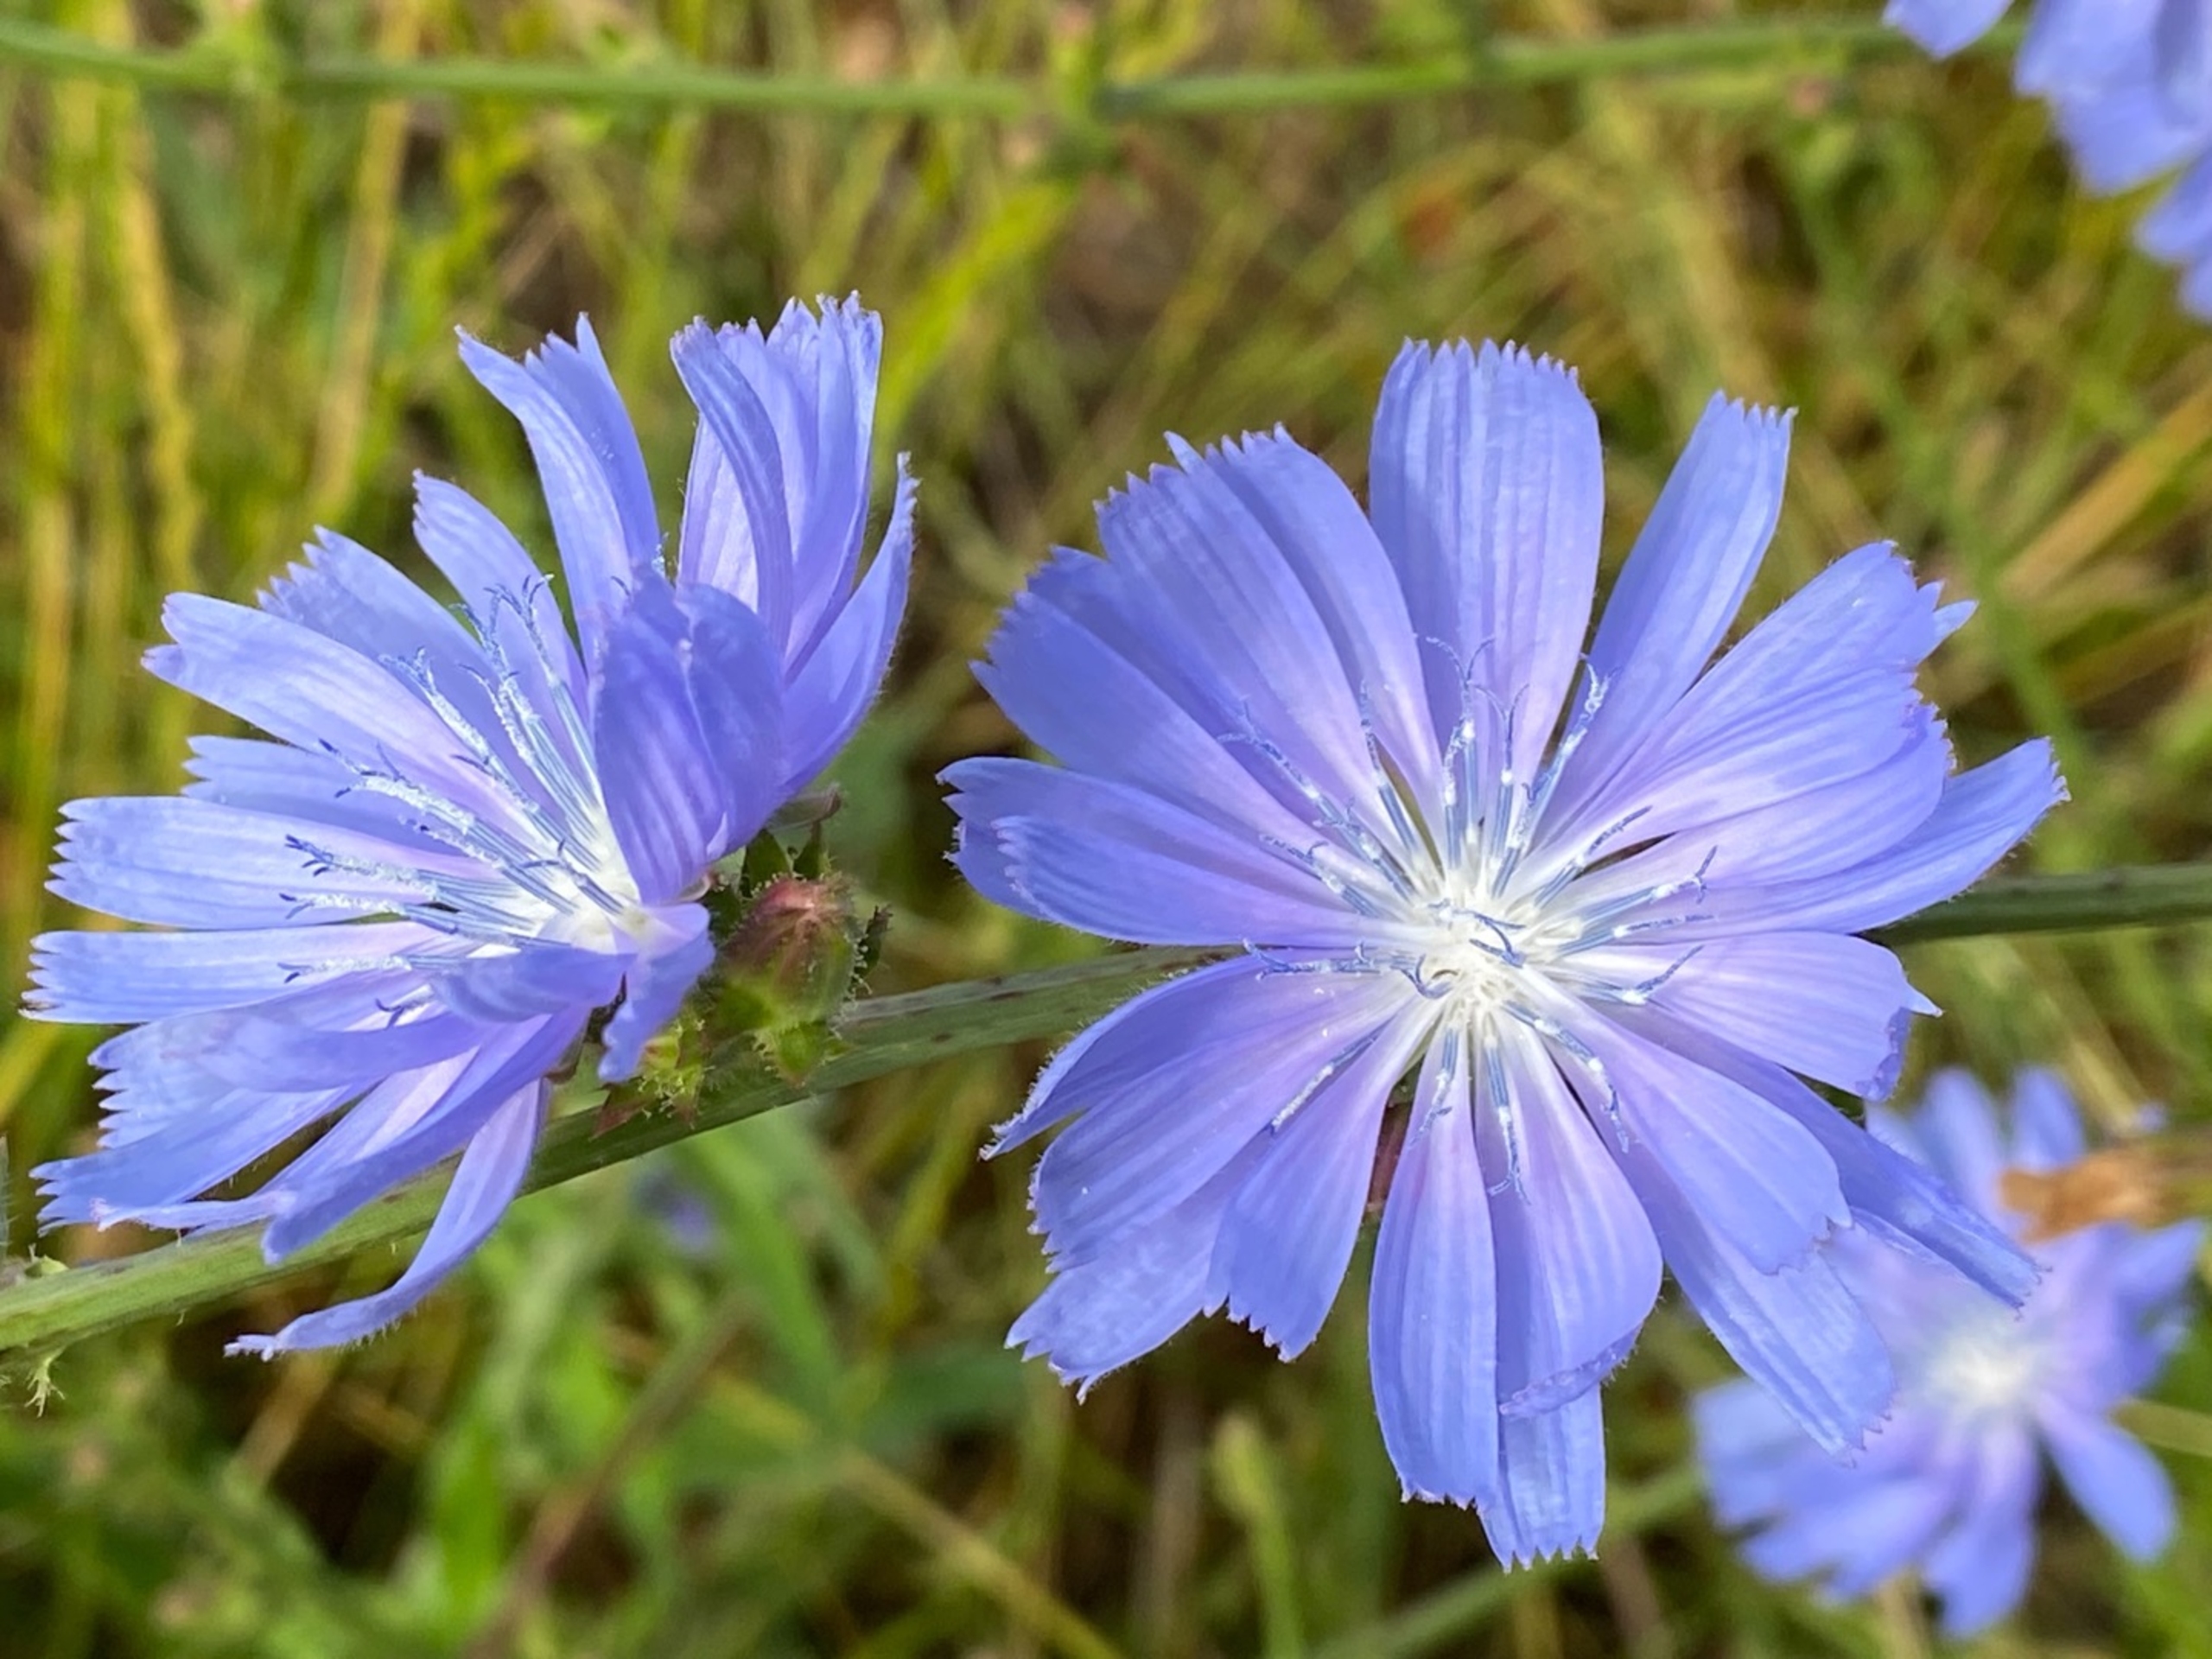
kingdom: Plantae
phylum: Tracheophyta
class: Magnoliopsida
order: Asterales
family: Asteraceae
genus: Cichorium
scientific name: Cichorium intybus
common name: Cikorie
